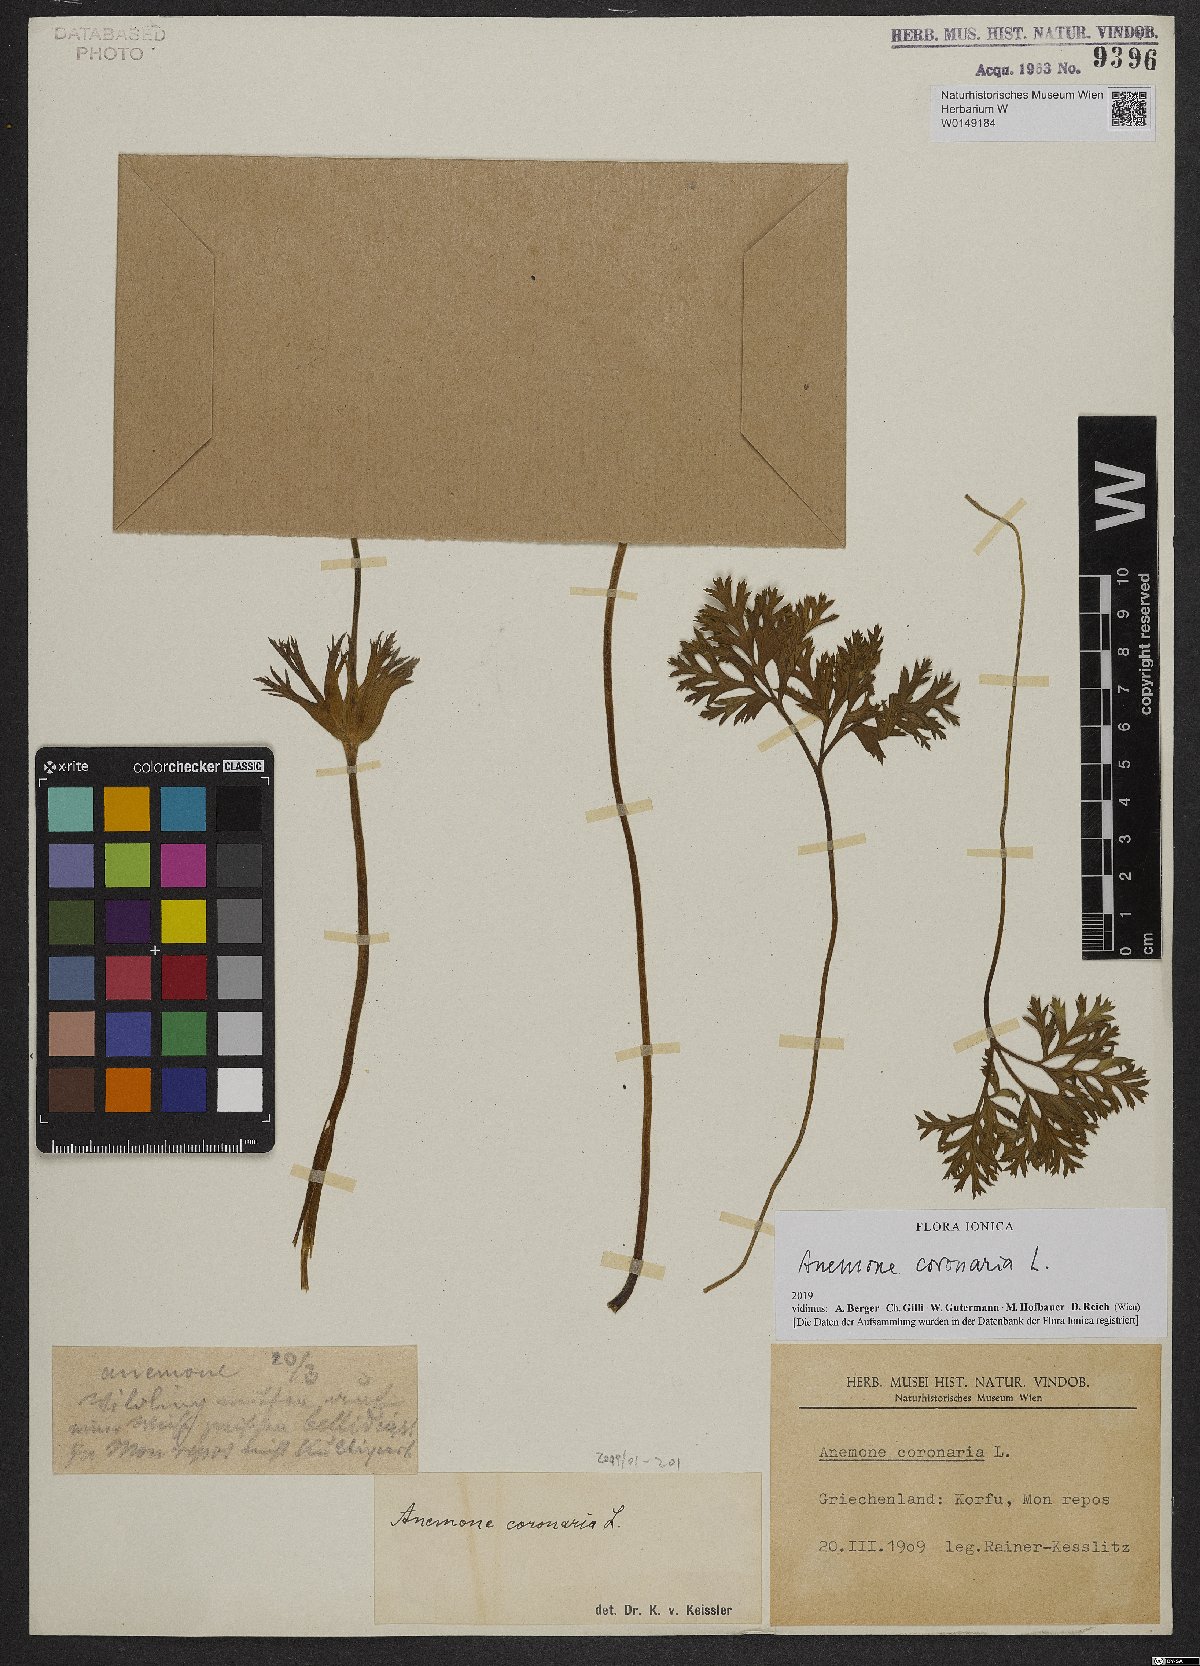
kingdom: Plantae
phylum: Tracheophyta
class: Magnoliopsida
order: Ranunculales
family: Ranunculaceae
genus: Anemone
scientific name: Anemone coronaria
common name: Poppy anemone
